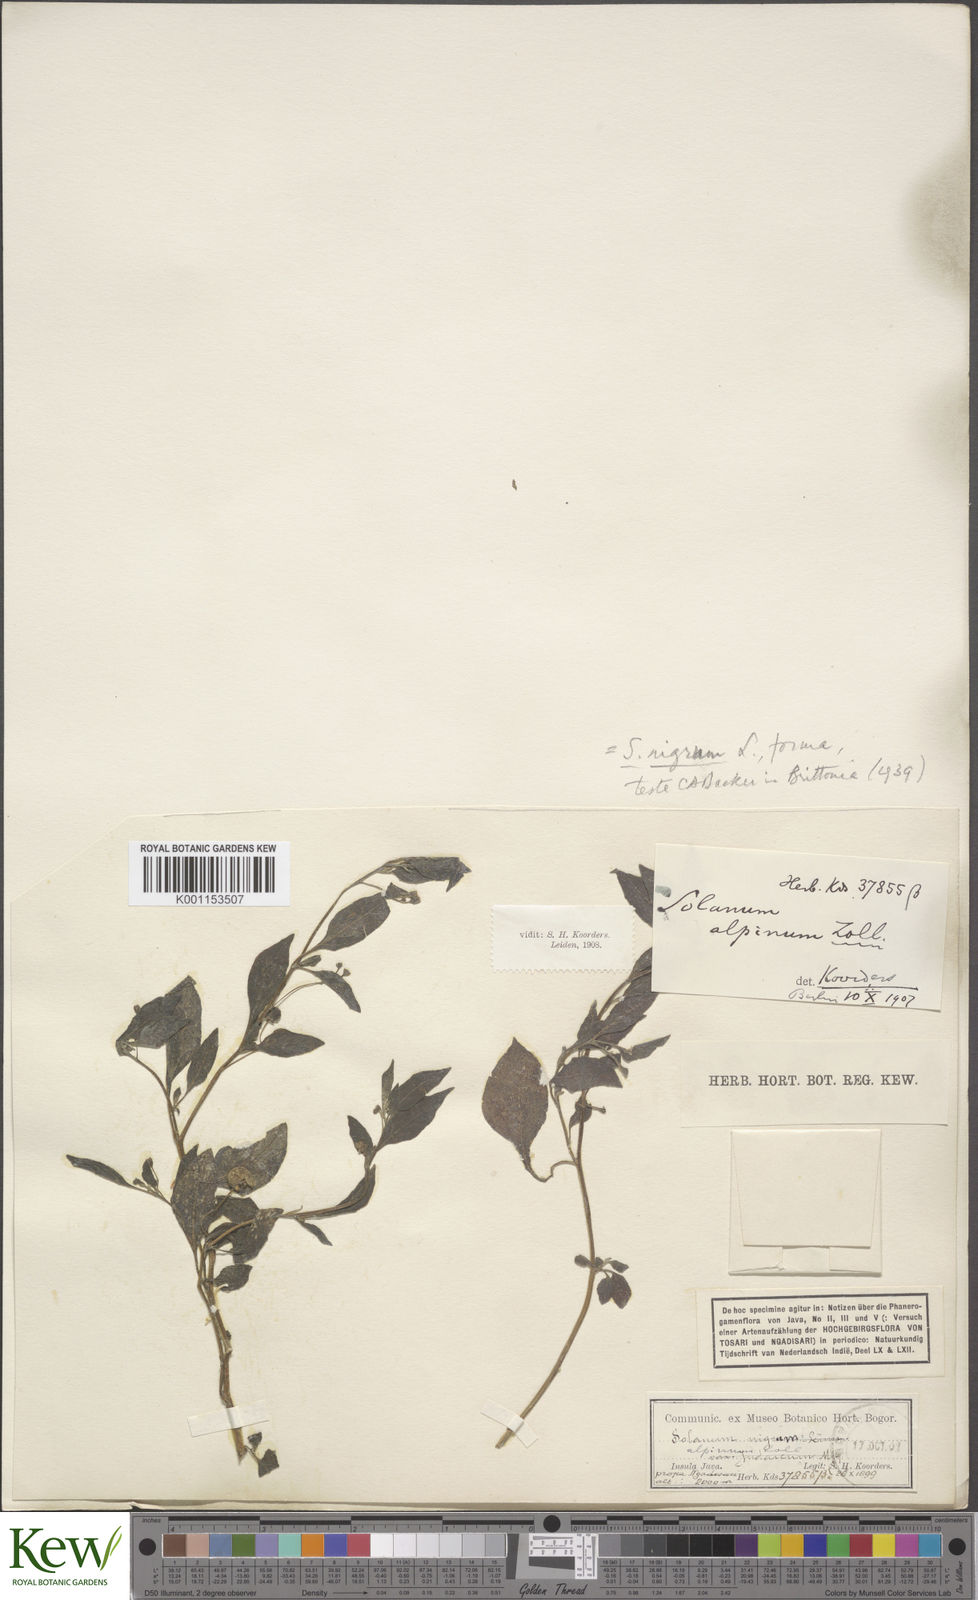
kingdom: Plantae
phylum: Tracheophyta
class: Magnoliopsida
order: Solanales
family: Solanaceae
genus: Solanum
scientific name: Solanum nigrum
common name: Black nightshade
